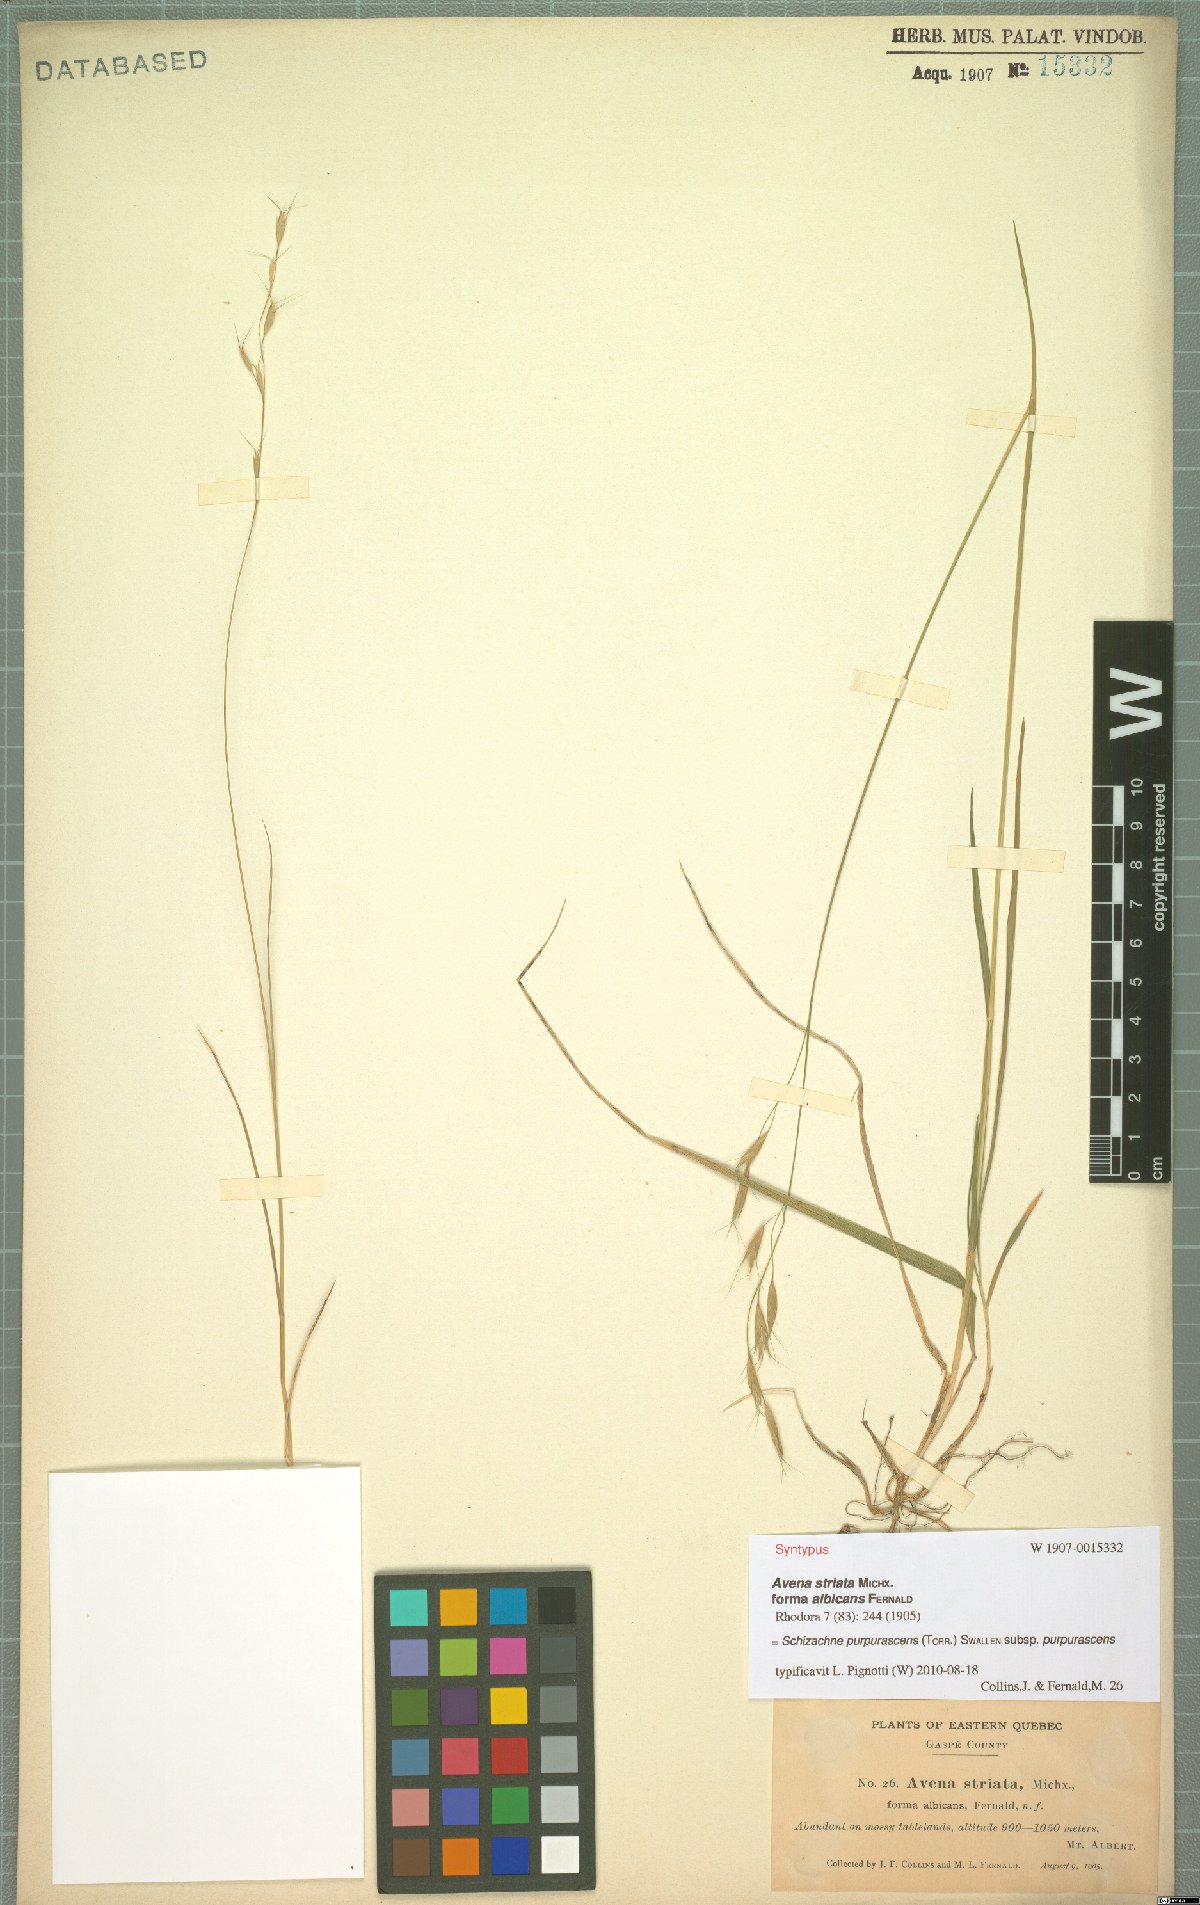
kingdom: Plantae
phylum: Tracheophyta
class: Liliopsida
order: Poales
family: Poaceae
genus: Schizachne
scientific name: Schizachne purpurascens
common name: False melic
